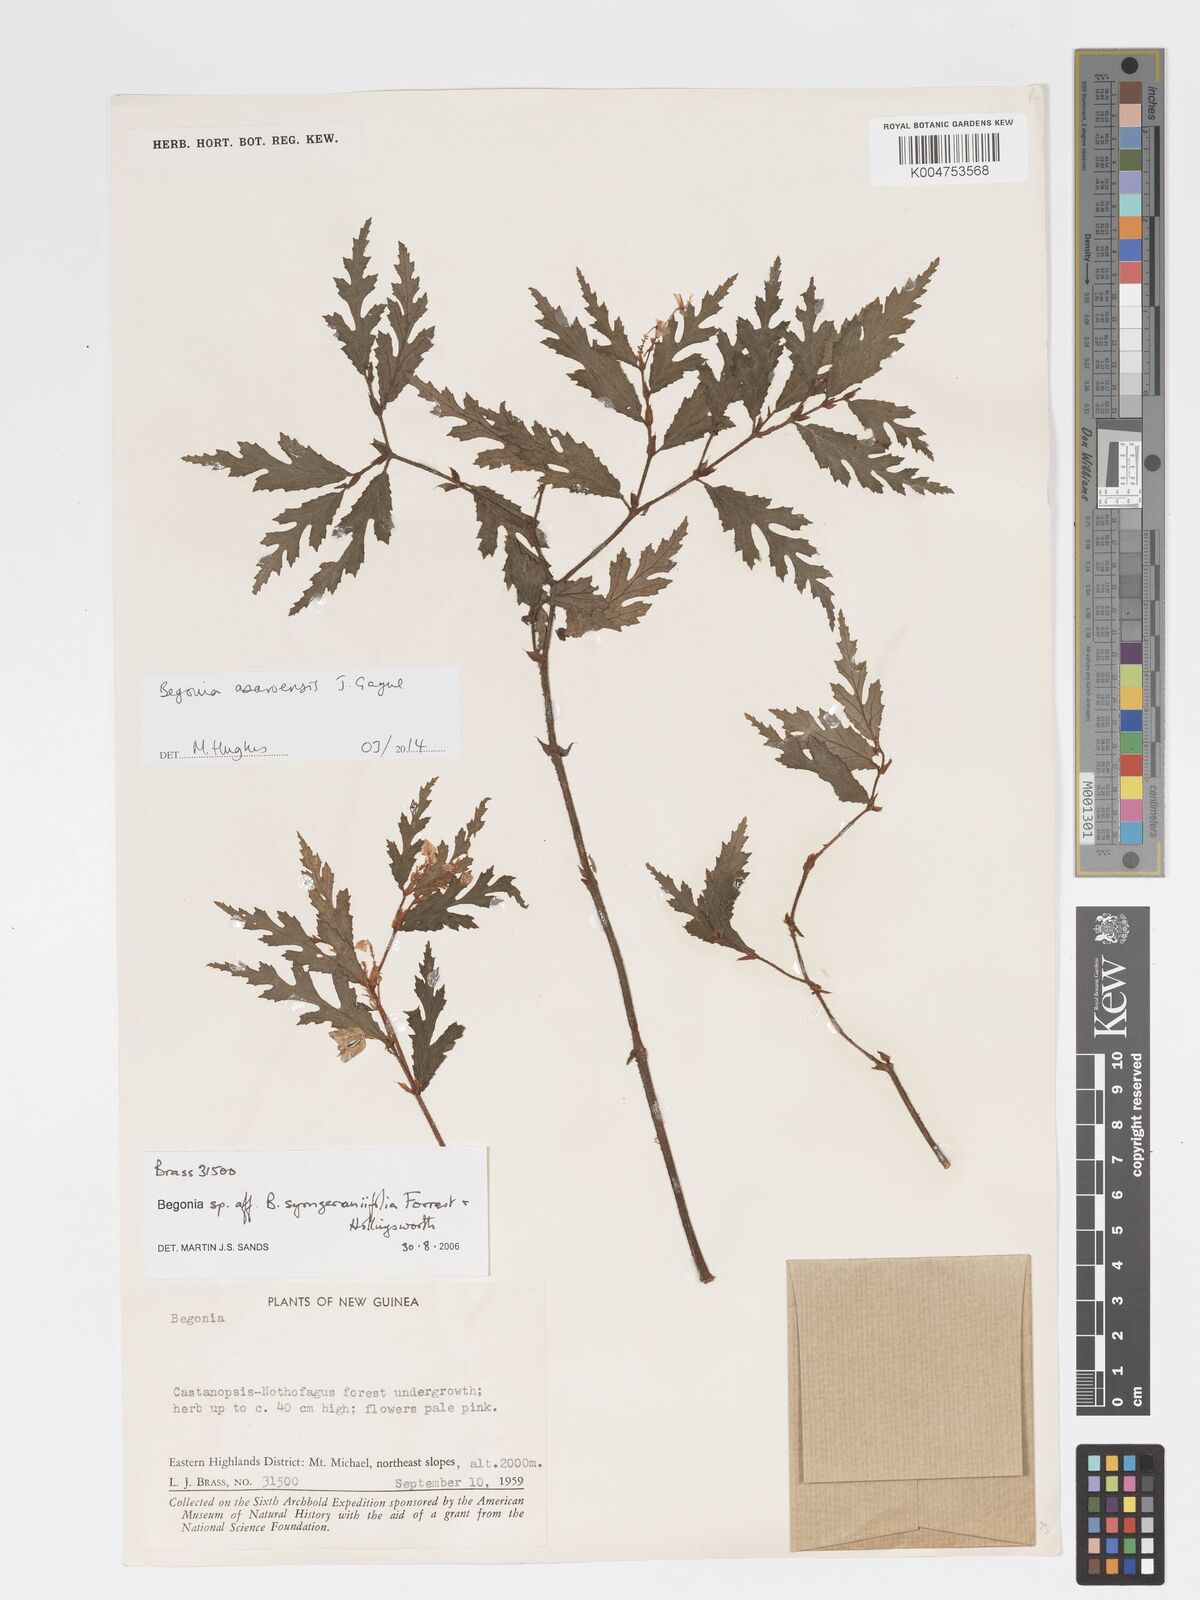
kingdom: Plantae
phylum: Tracheophyta
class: Magnoliopsida
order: Cucurbitales
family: Begoniaceae
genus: Begonia
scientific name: Begonia asaroensis
